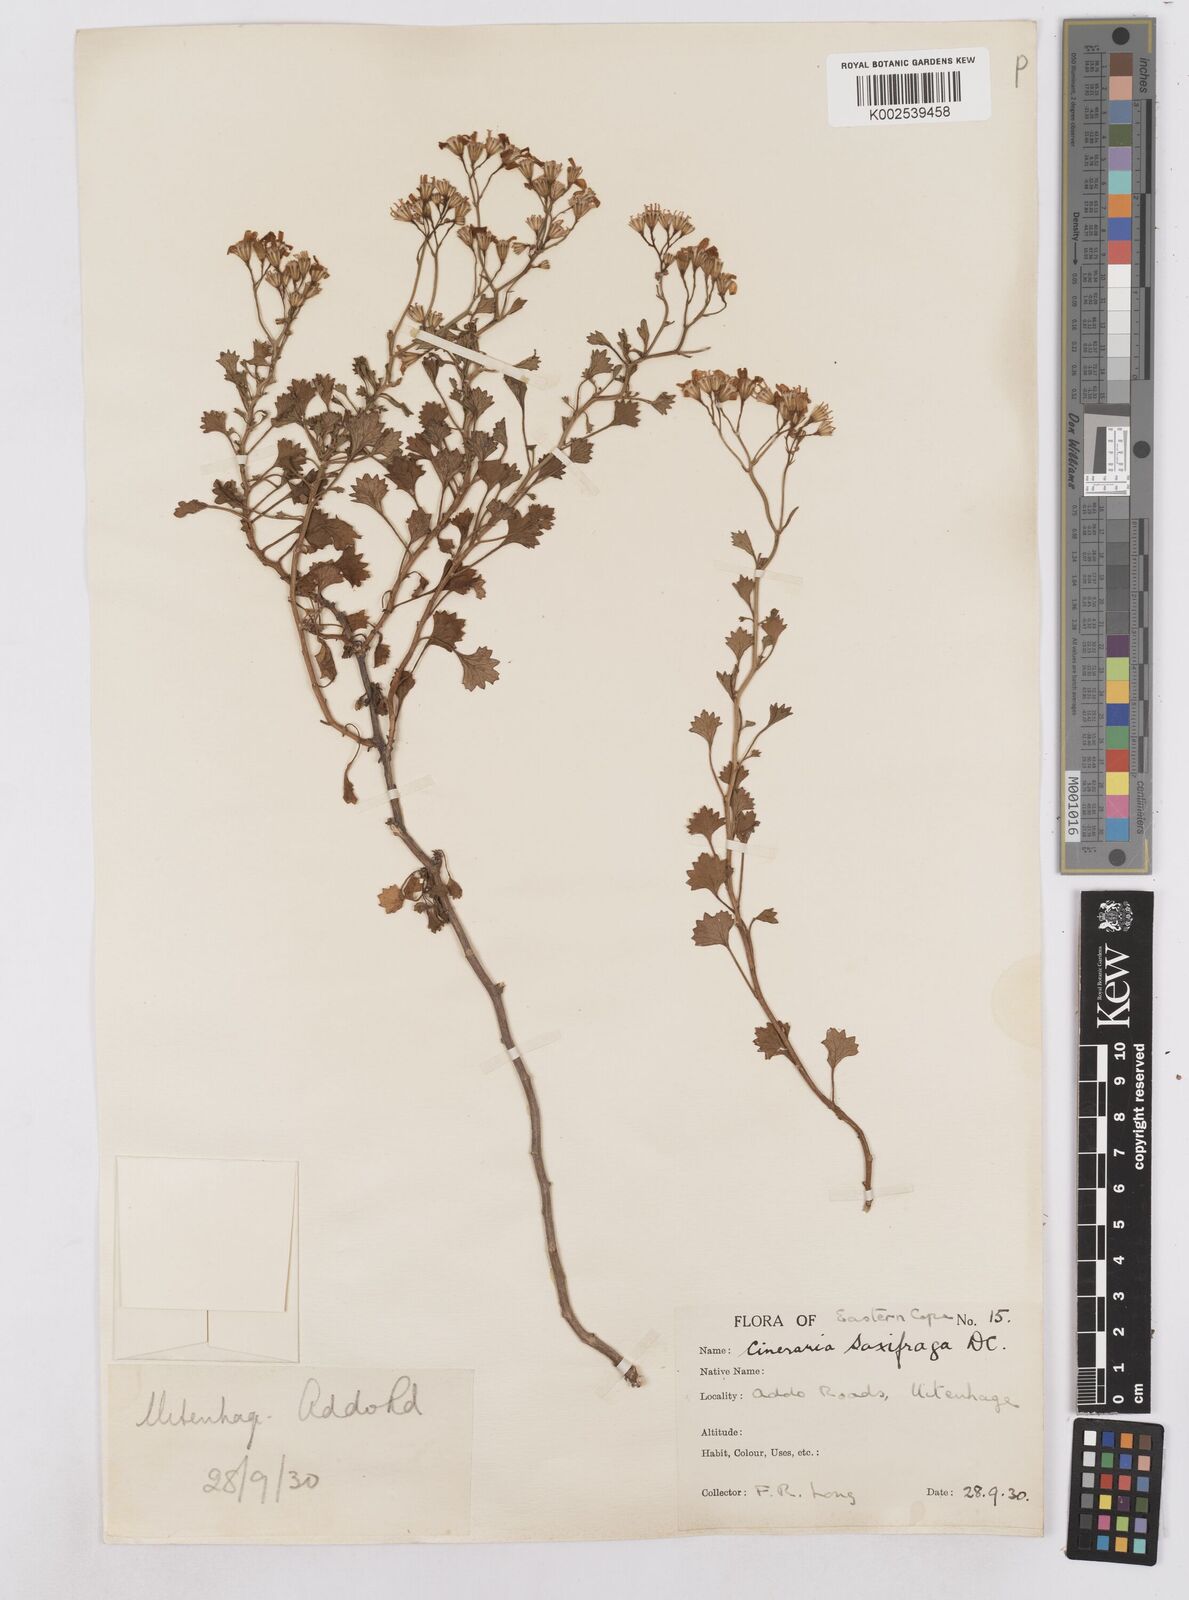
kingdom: Plantae
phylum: Tracheophyta
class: Magnoliopsida
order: Asterales
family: Asteraceae
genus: Cineraria
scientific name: Cineraria saxifraga
